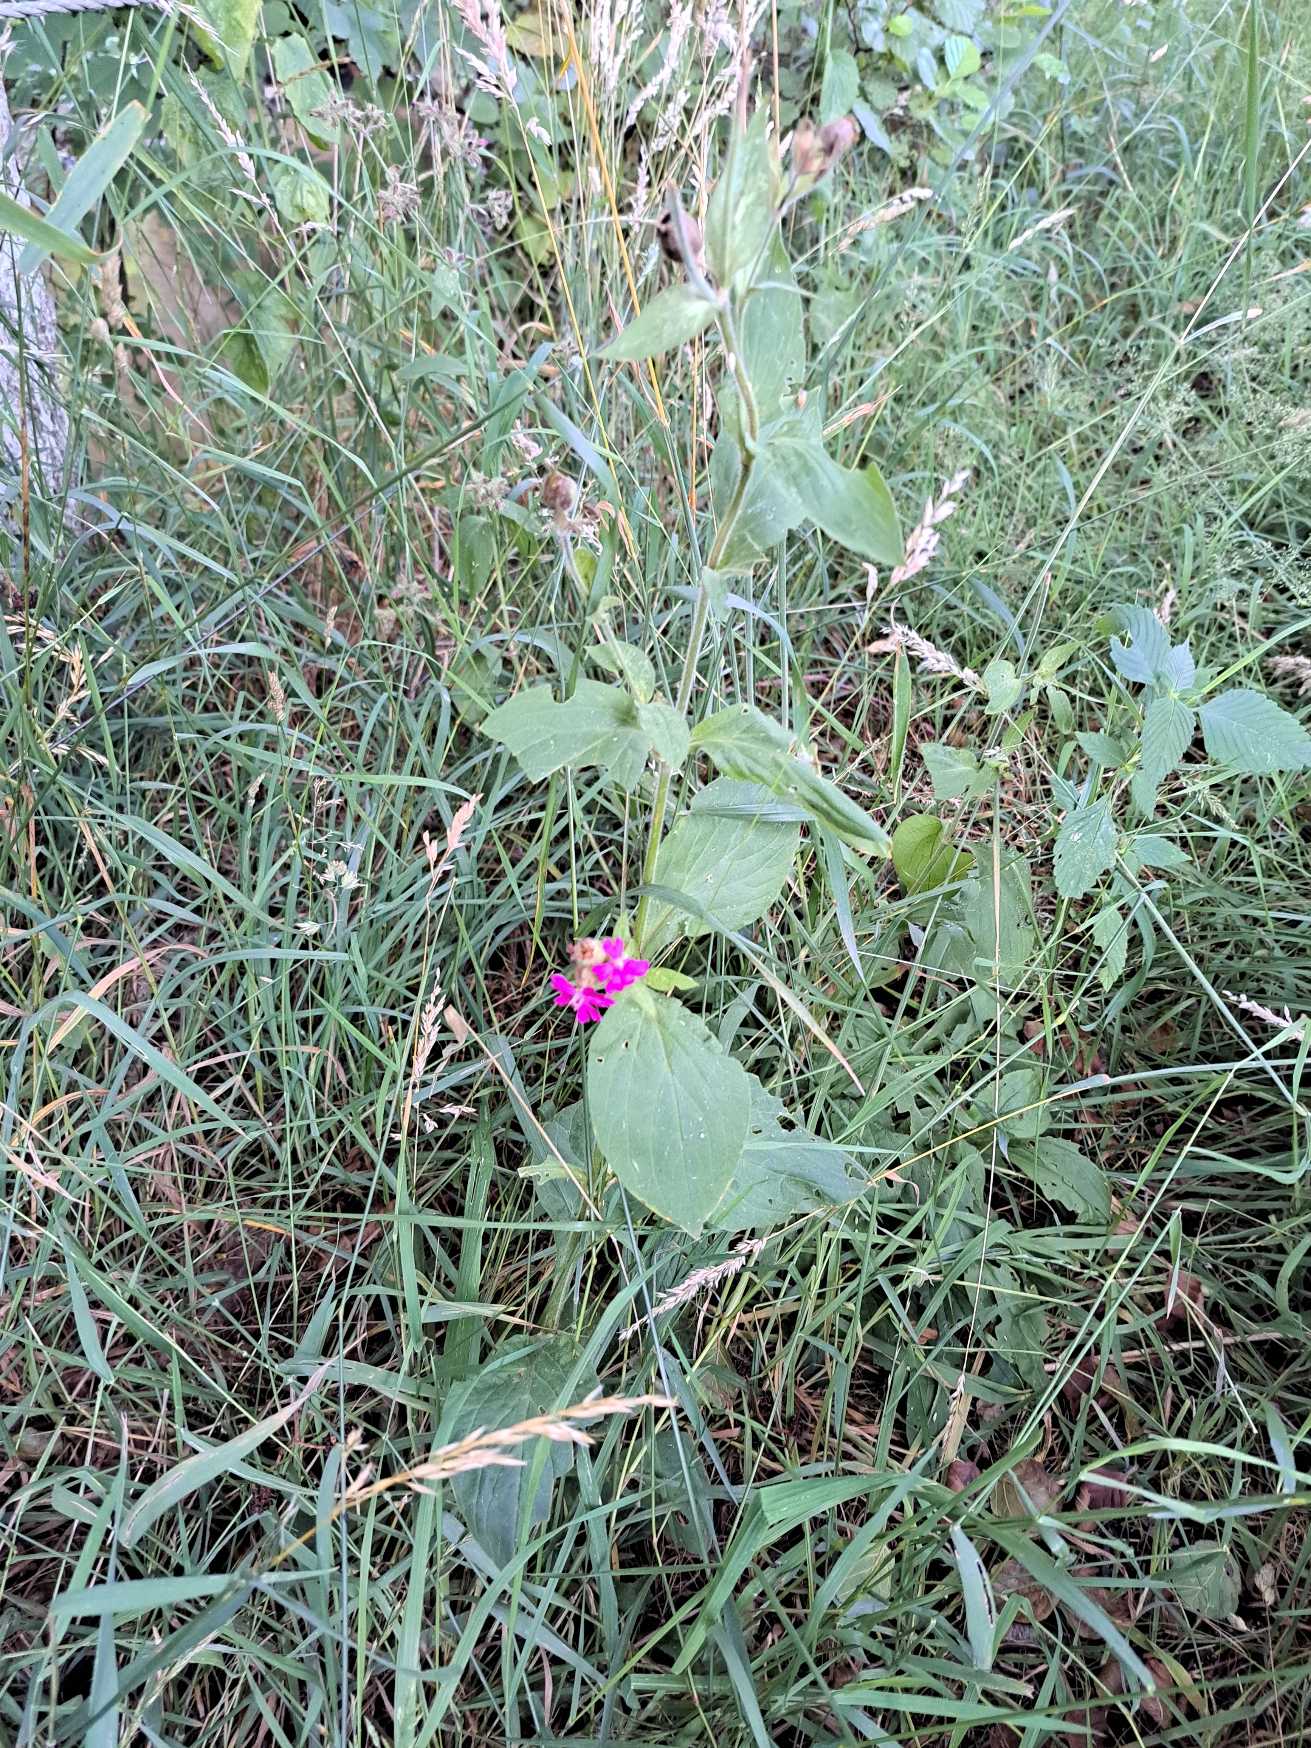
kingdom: Plantae
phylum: Tracheophyta
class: Magnoliopsida
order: Caryophyllales
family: Caryophyllaceae
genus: Silene
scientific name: Silene dioica
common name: Dagpragtstjerne
